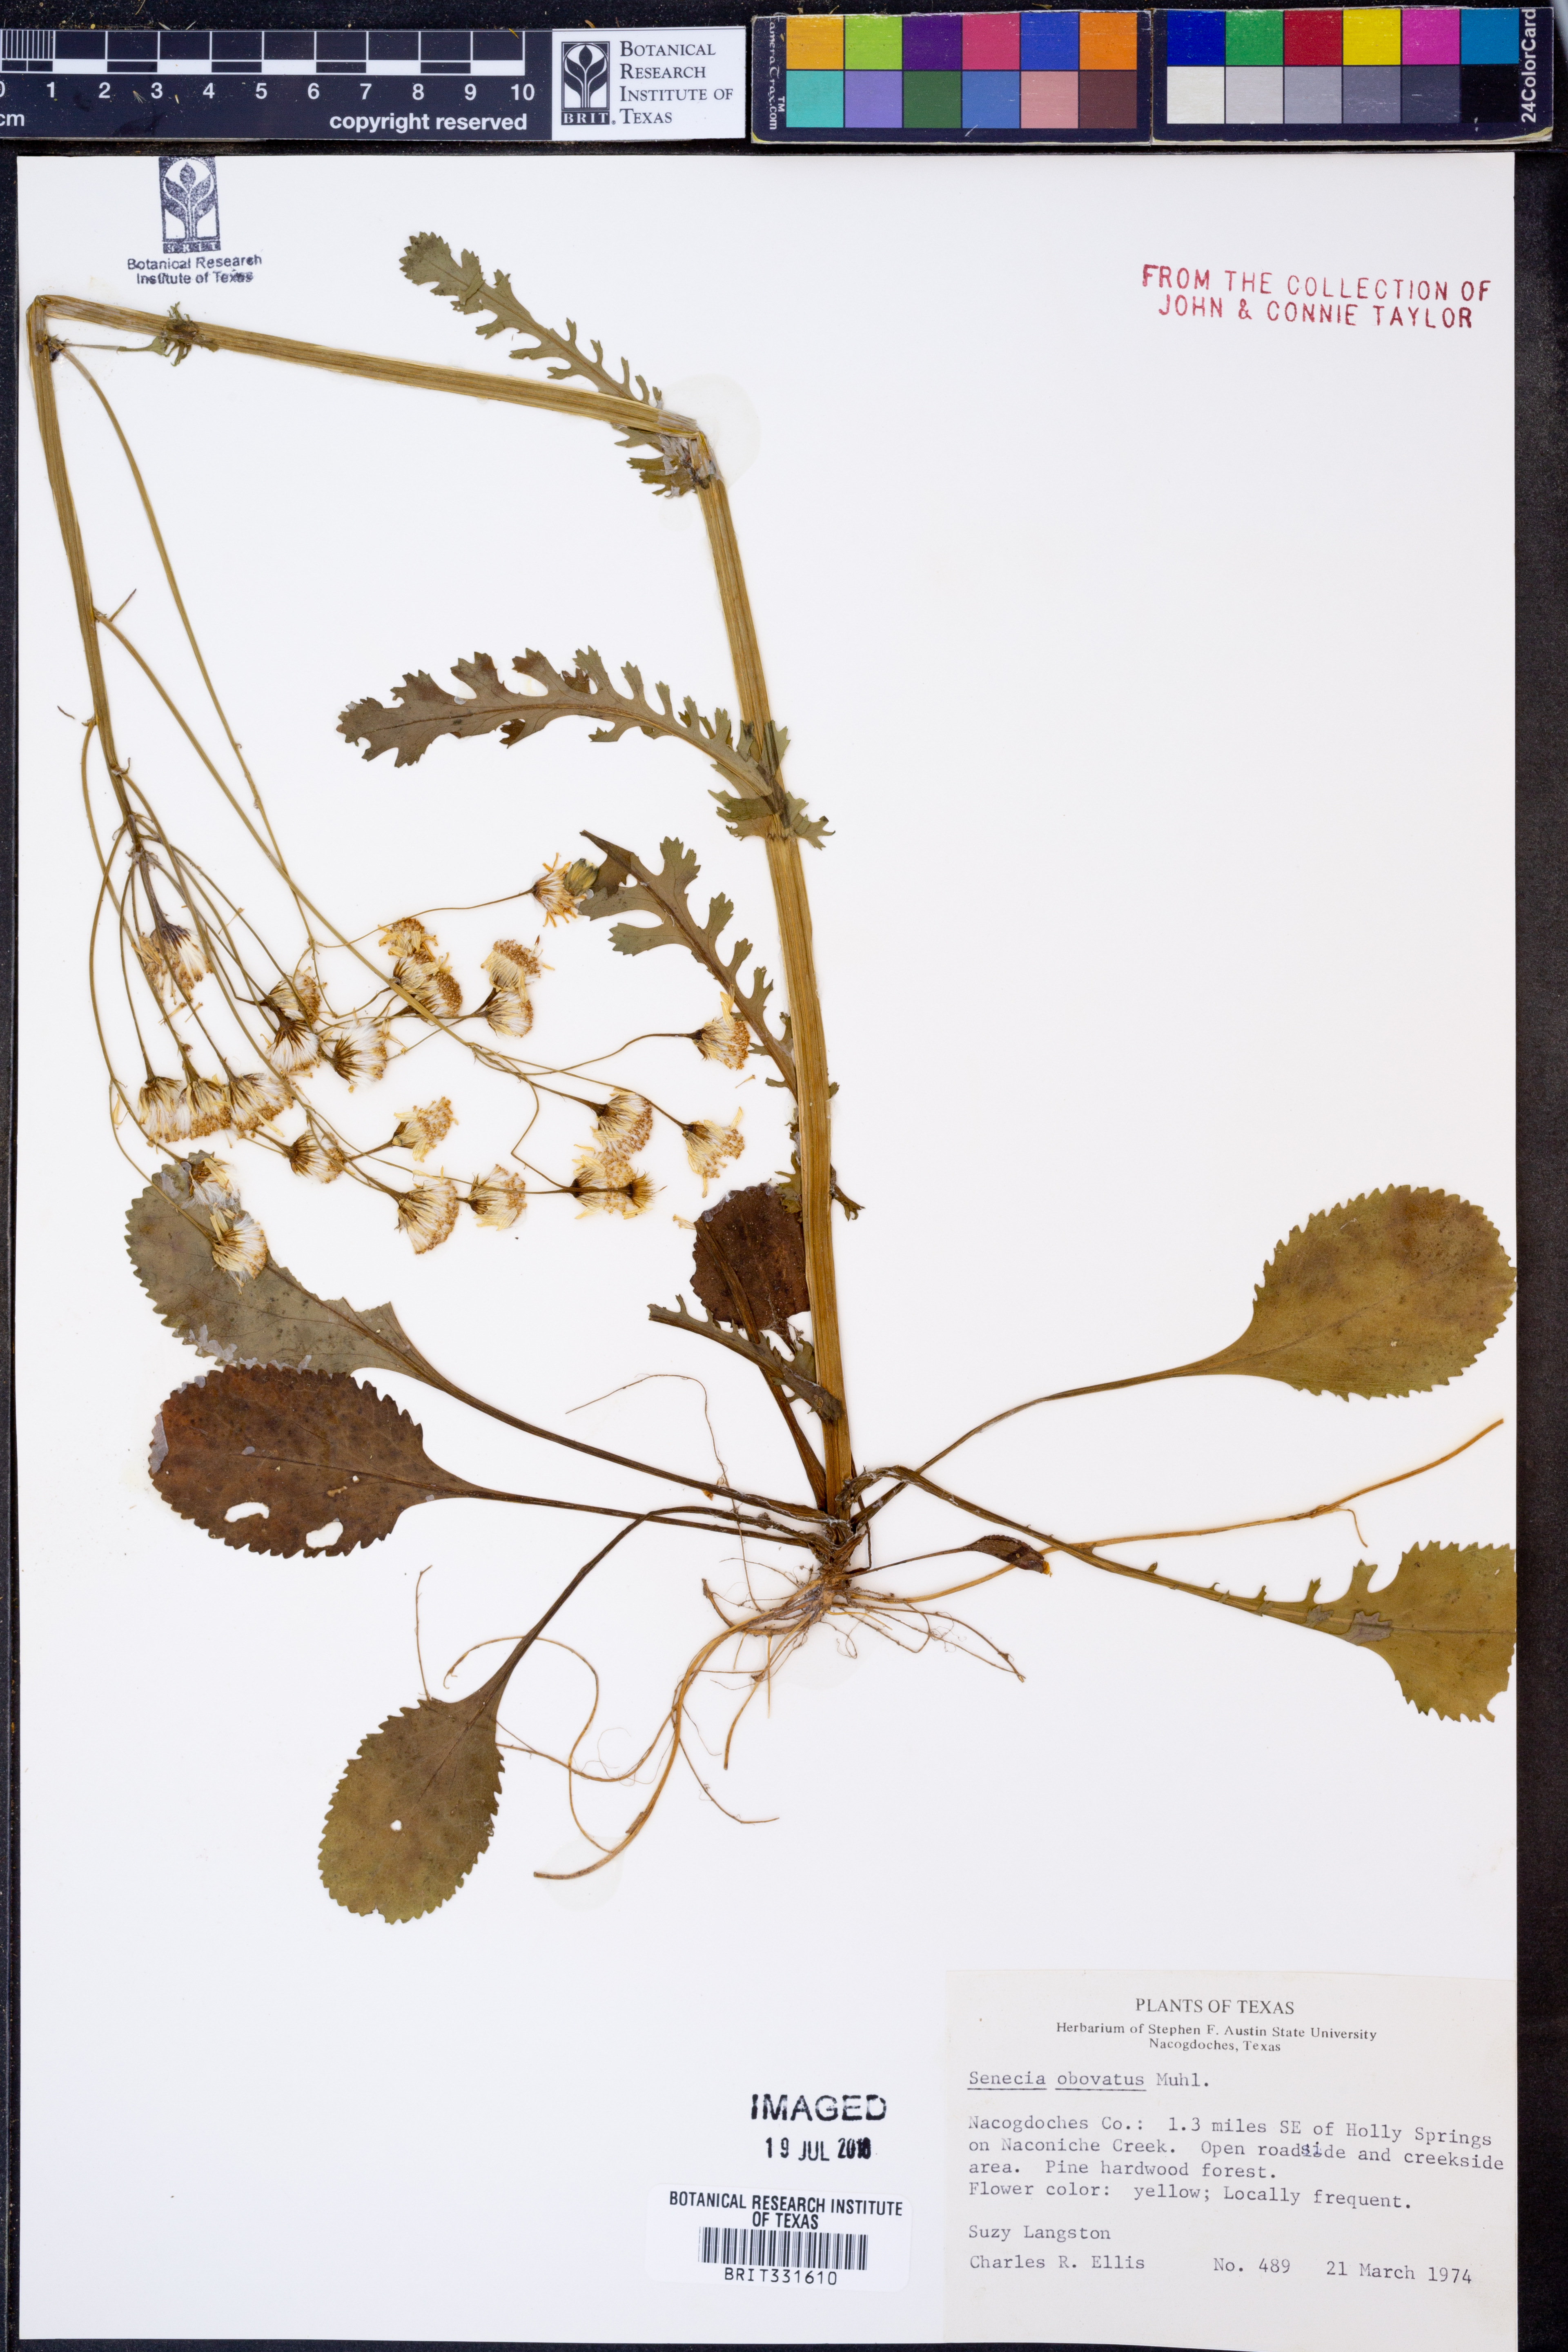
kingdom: Plantae
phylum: Tracheophyta
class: Magnoliopsida
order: Asterales
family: Asteraceae
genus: Senecio
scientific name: Senecio provincialis
